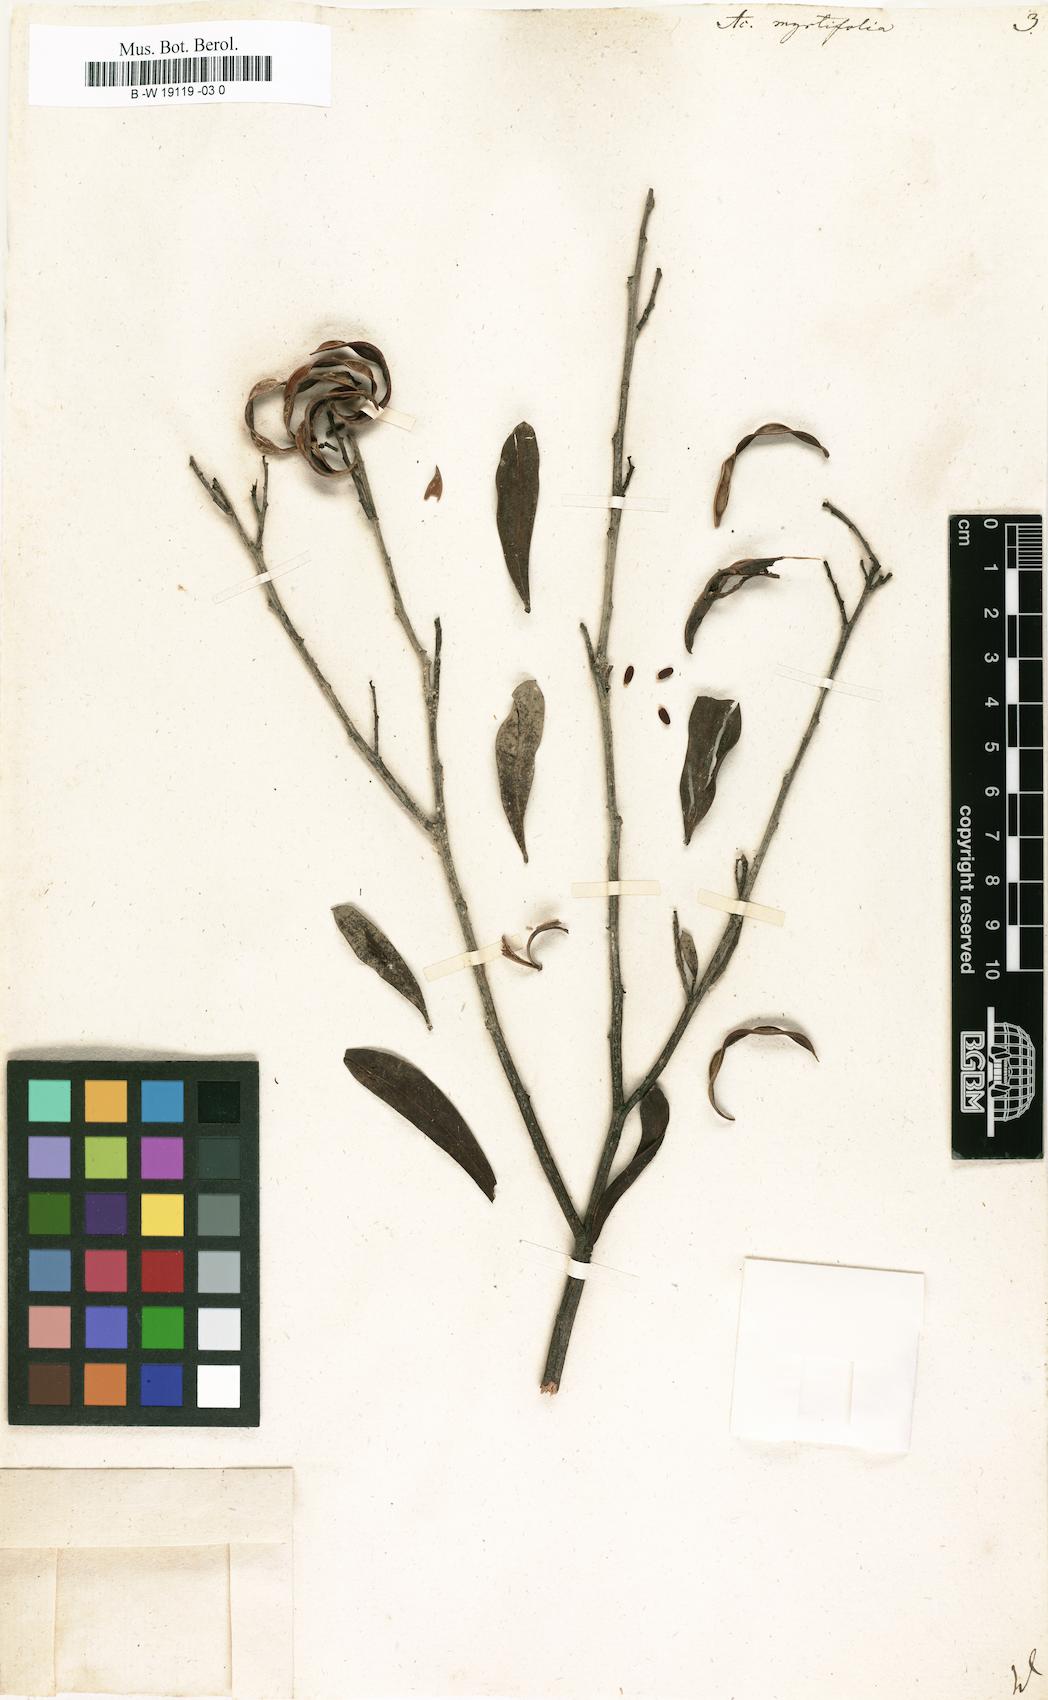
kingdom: Plantae
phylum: Tracheophyta
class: Magnoliopsida
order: Fabales
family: Fabaceae
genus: Acacia
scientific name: Acacia myrtifolia
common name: Myrtle wattle
